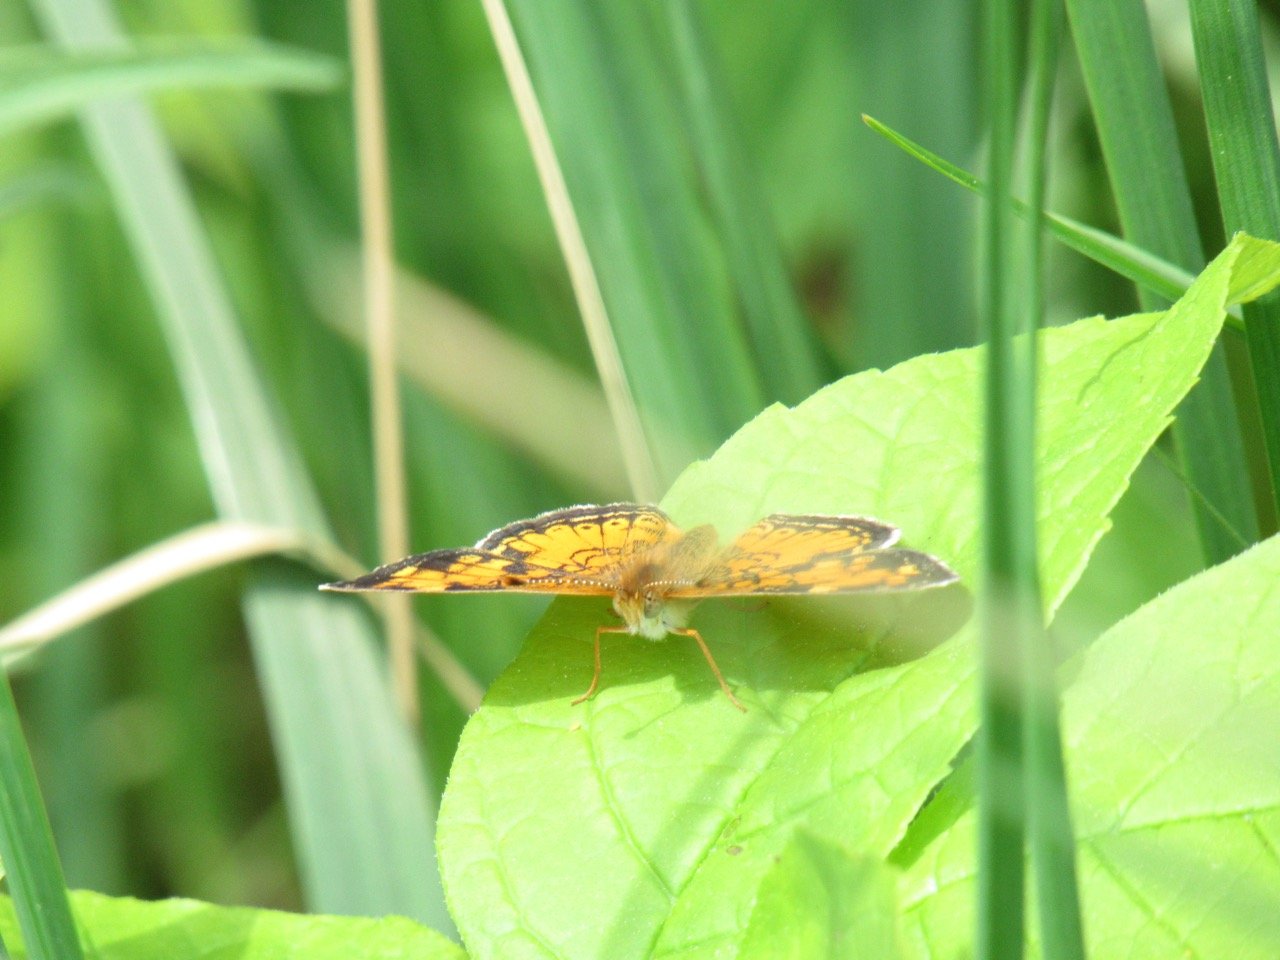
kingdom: Animalia
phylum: Arthropoda
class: Insecta
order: Lepidoptera
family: Nymphalidae
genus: Phyciodes
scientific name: Phyciodes tharos
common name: Pearl Crescent
